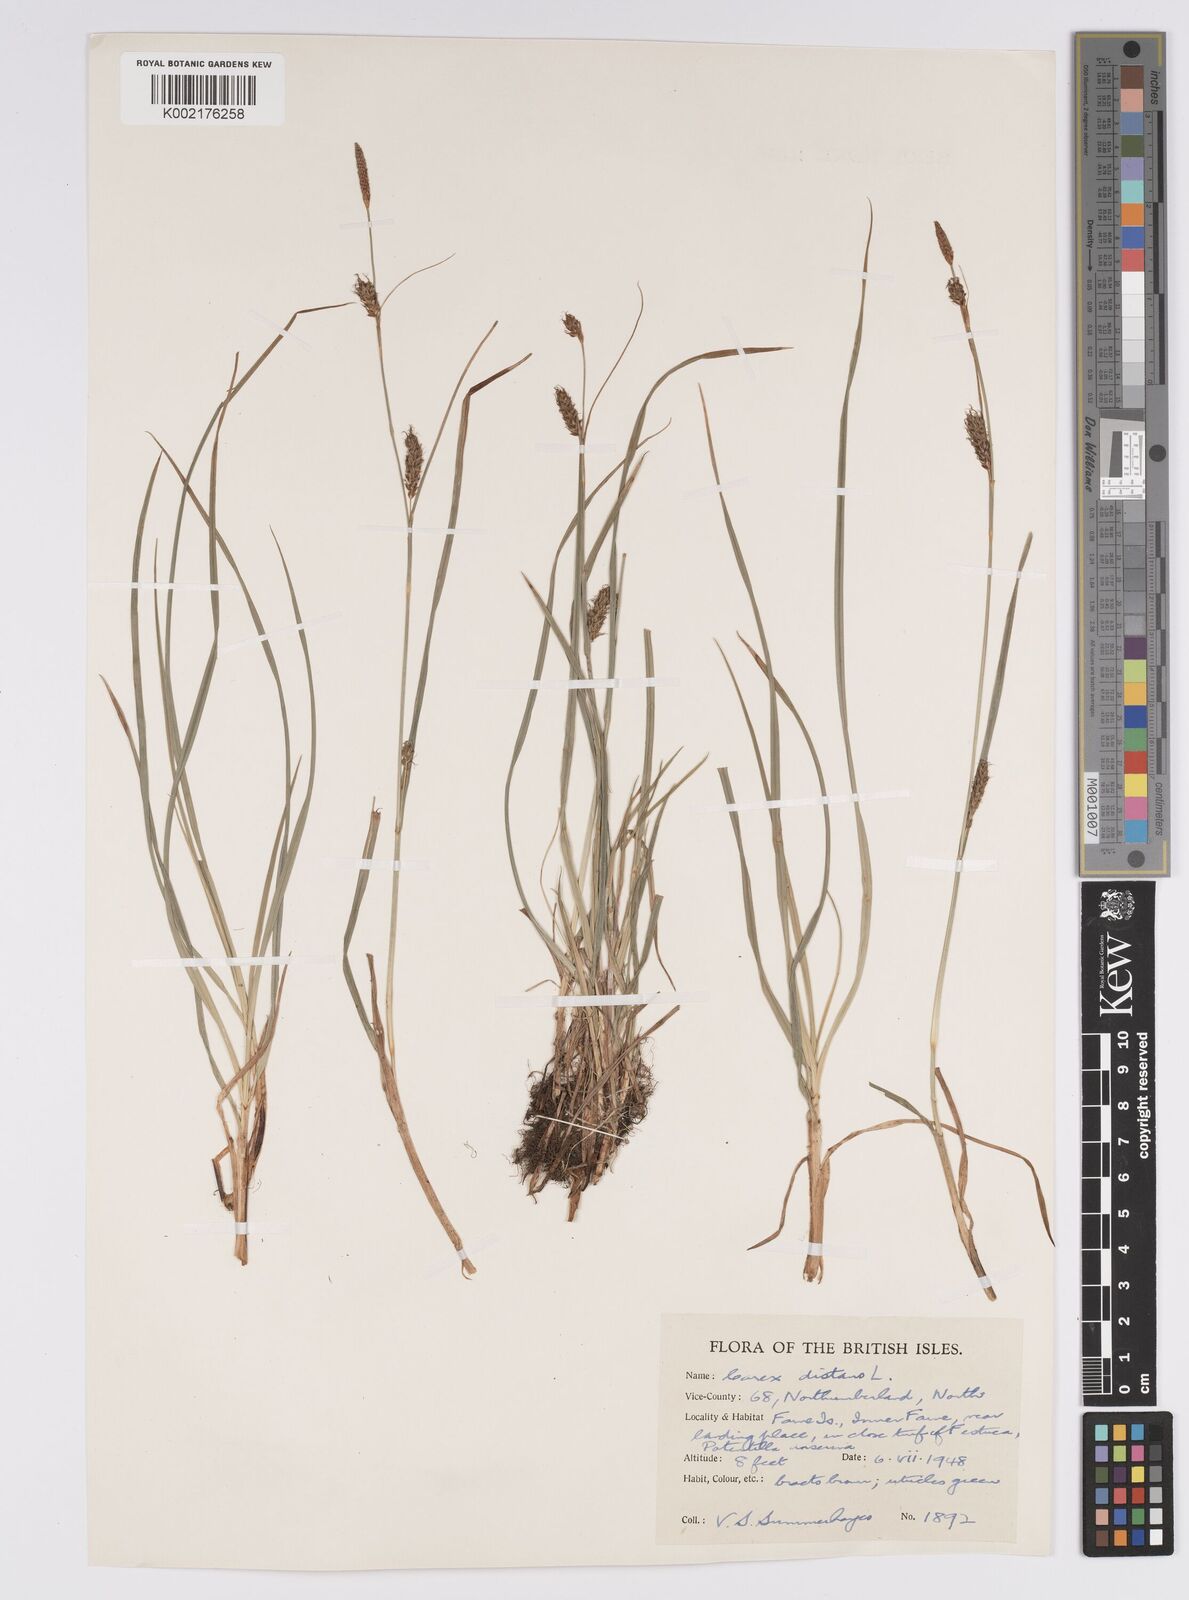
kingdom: Plantae
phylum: Tracheophyta
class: Liliopsida
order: Poales
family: Cyperaceae
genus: Carex
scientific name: Carex distans
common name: Distant sedge
